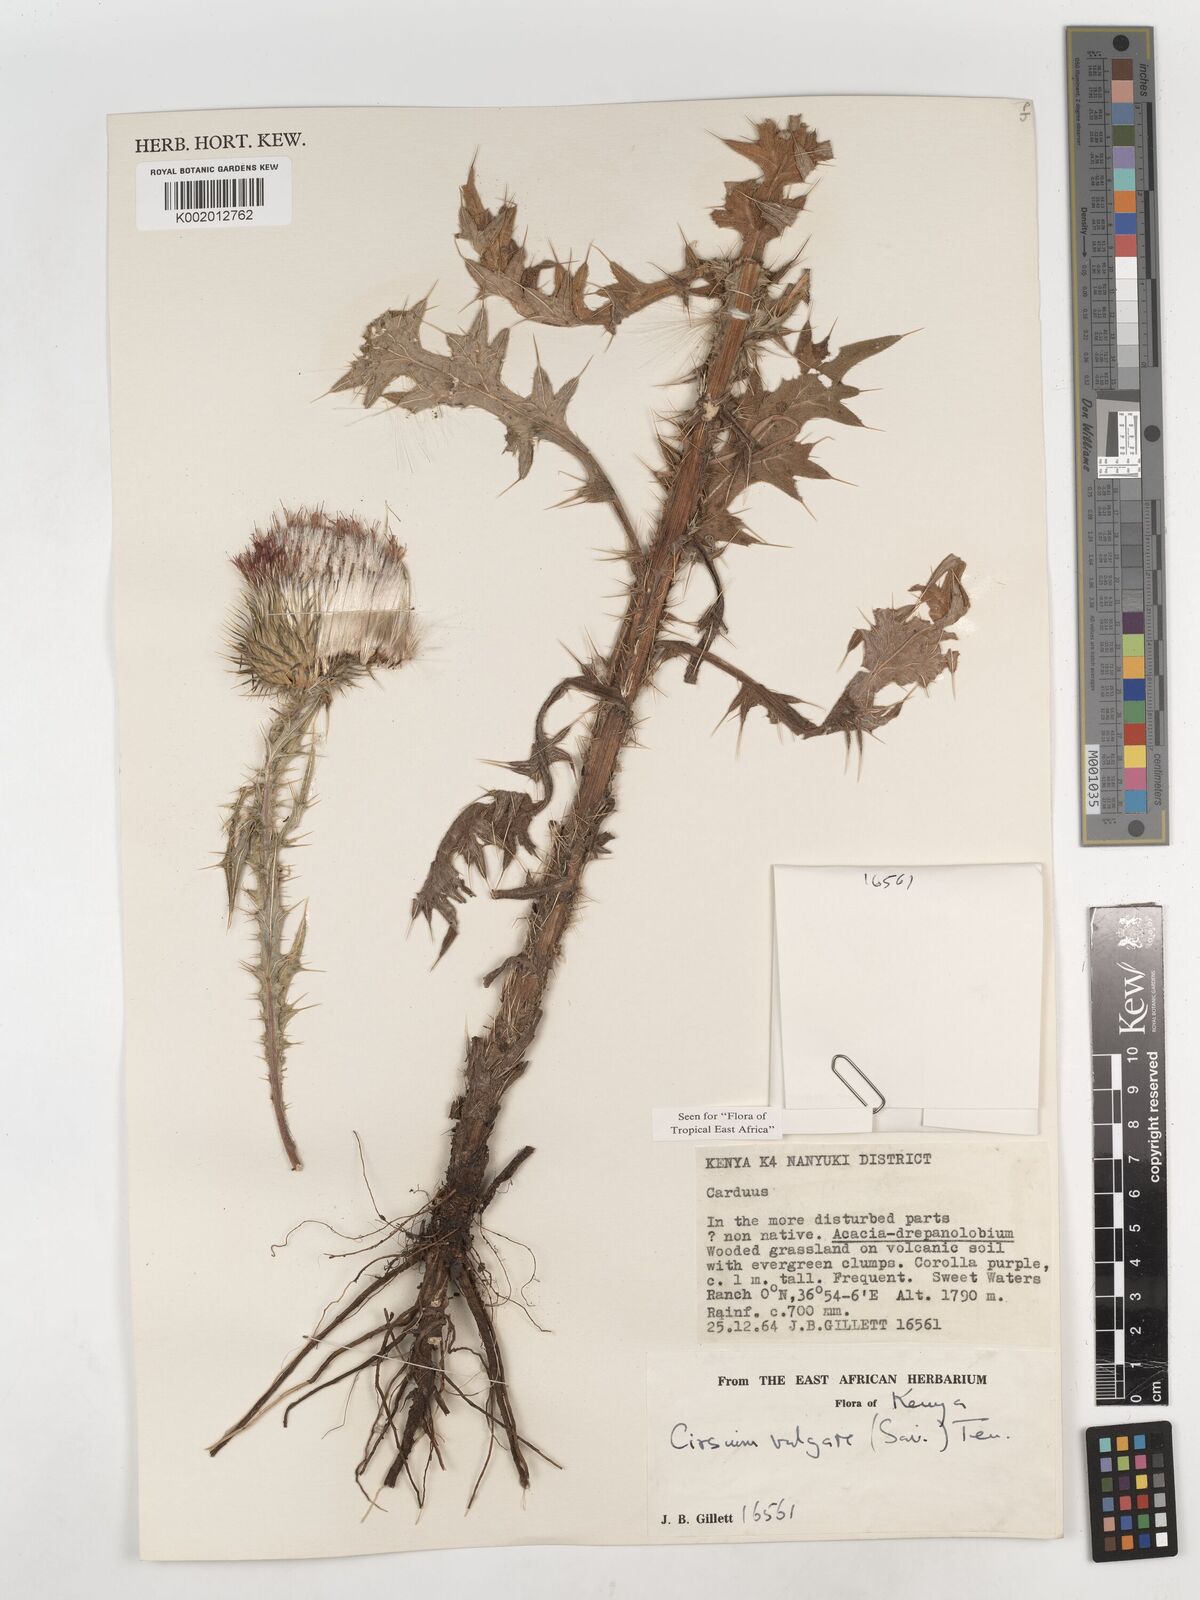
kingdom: Plantae
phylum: Tracheophyta
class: Magnoliopsida
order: Asterales
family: Asteraceae
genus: Cirsium
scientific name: Cirsium vulgare
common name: Bull thistle
